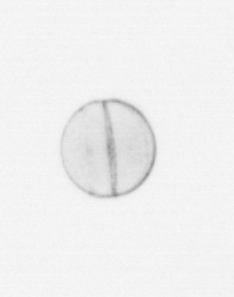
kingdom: Chromista
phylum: Ochrophyta
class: Bacillariophyceae
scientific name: Bacillariophyceae
